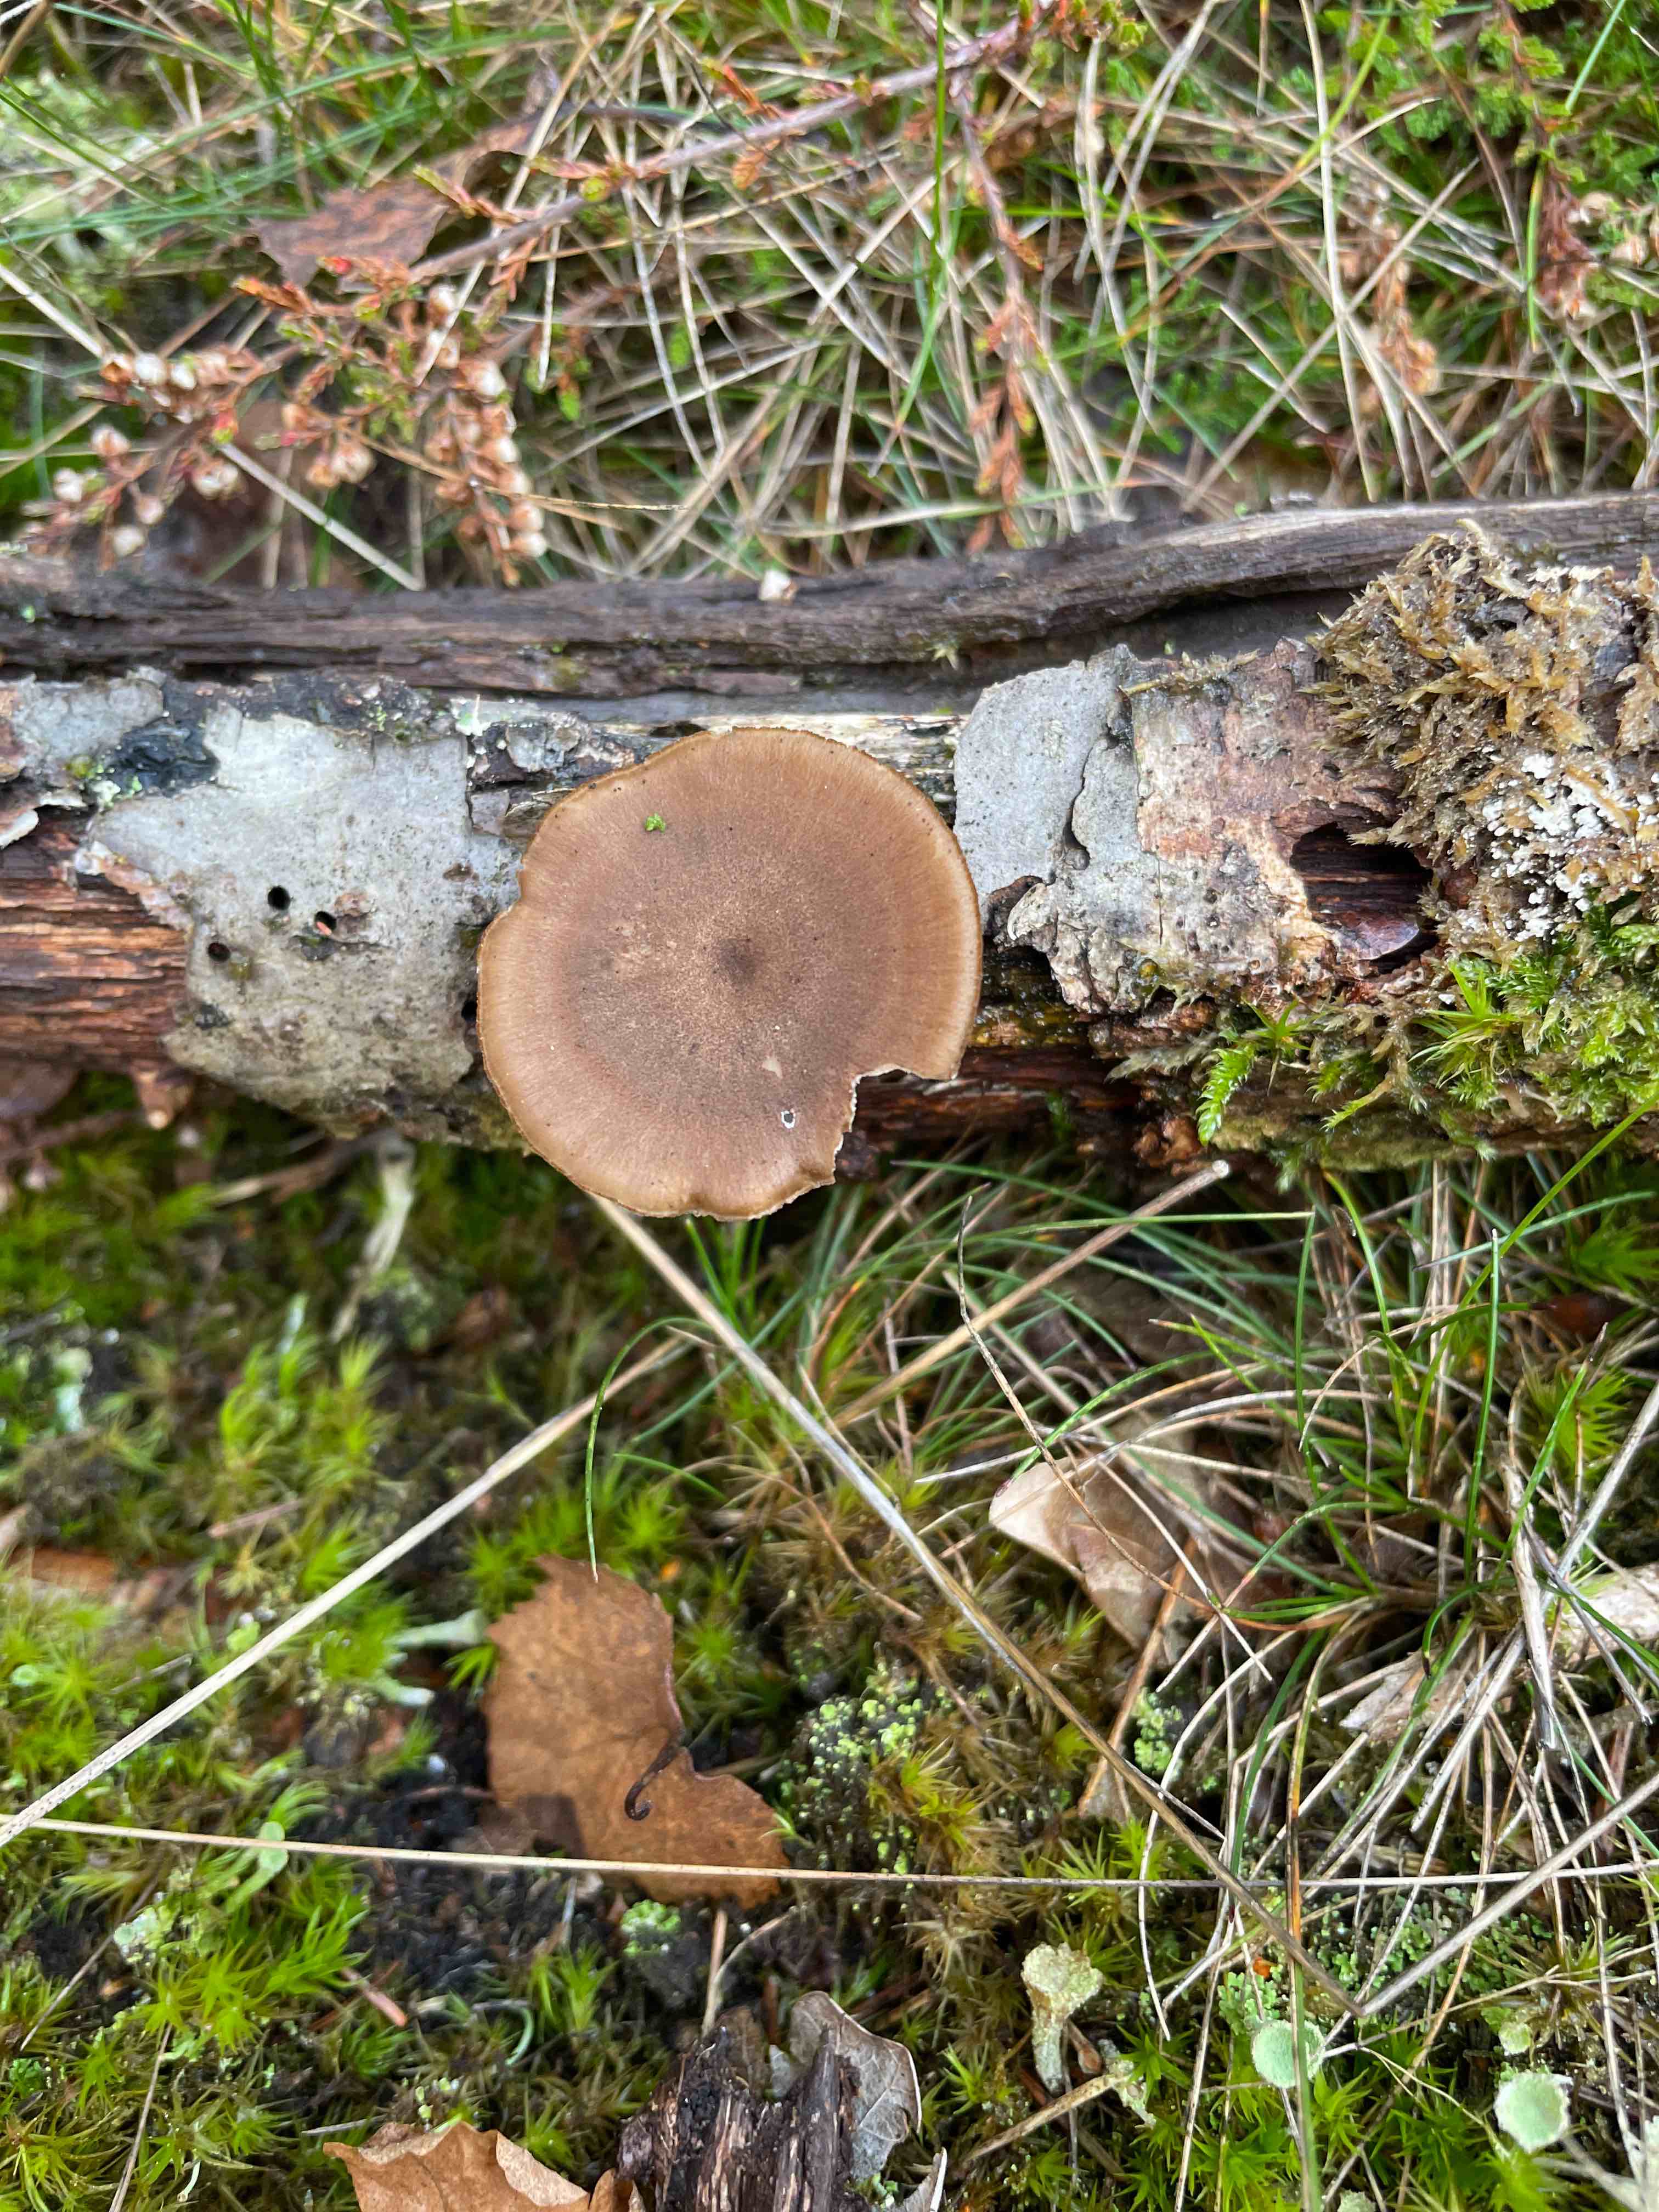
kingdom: Fungi
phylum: Basidiomycota
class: Agaricomycetes
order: Polyporales
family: Polyporaceae
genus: Lentinus
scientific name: Lentinus brumalis
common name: vinter-stilkporesvamp
